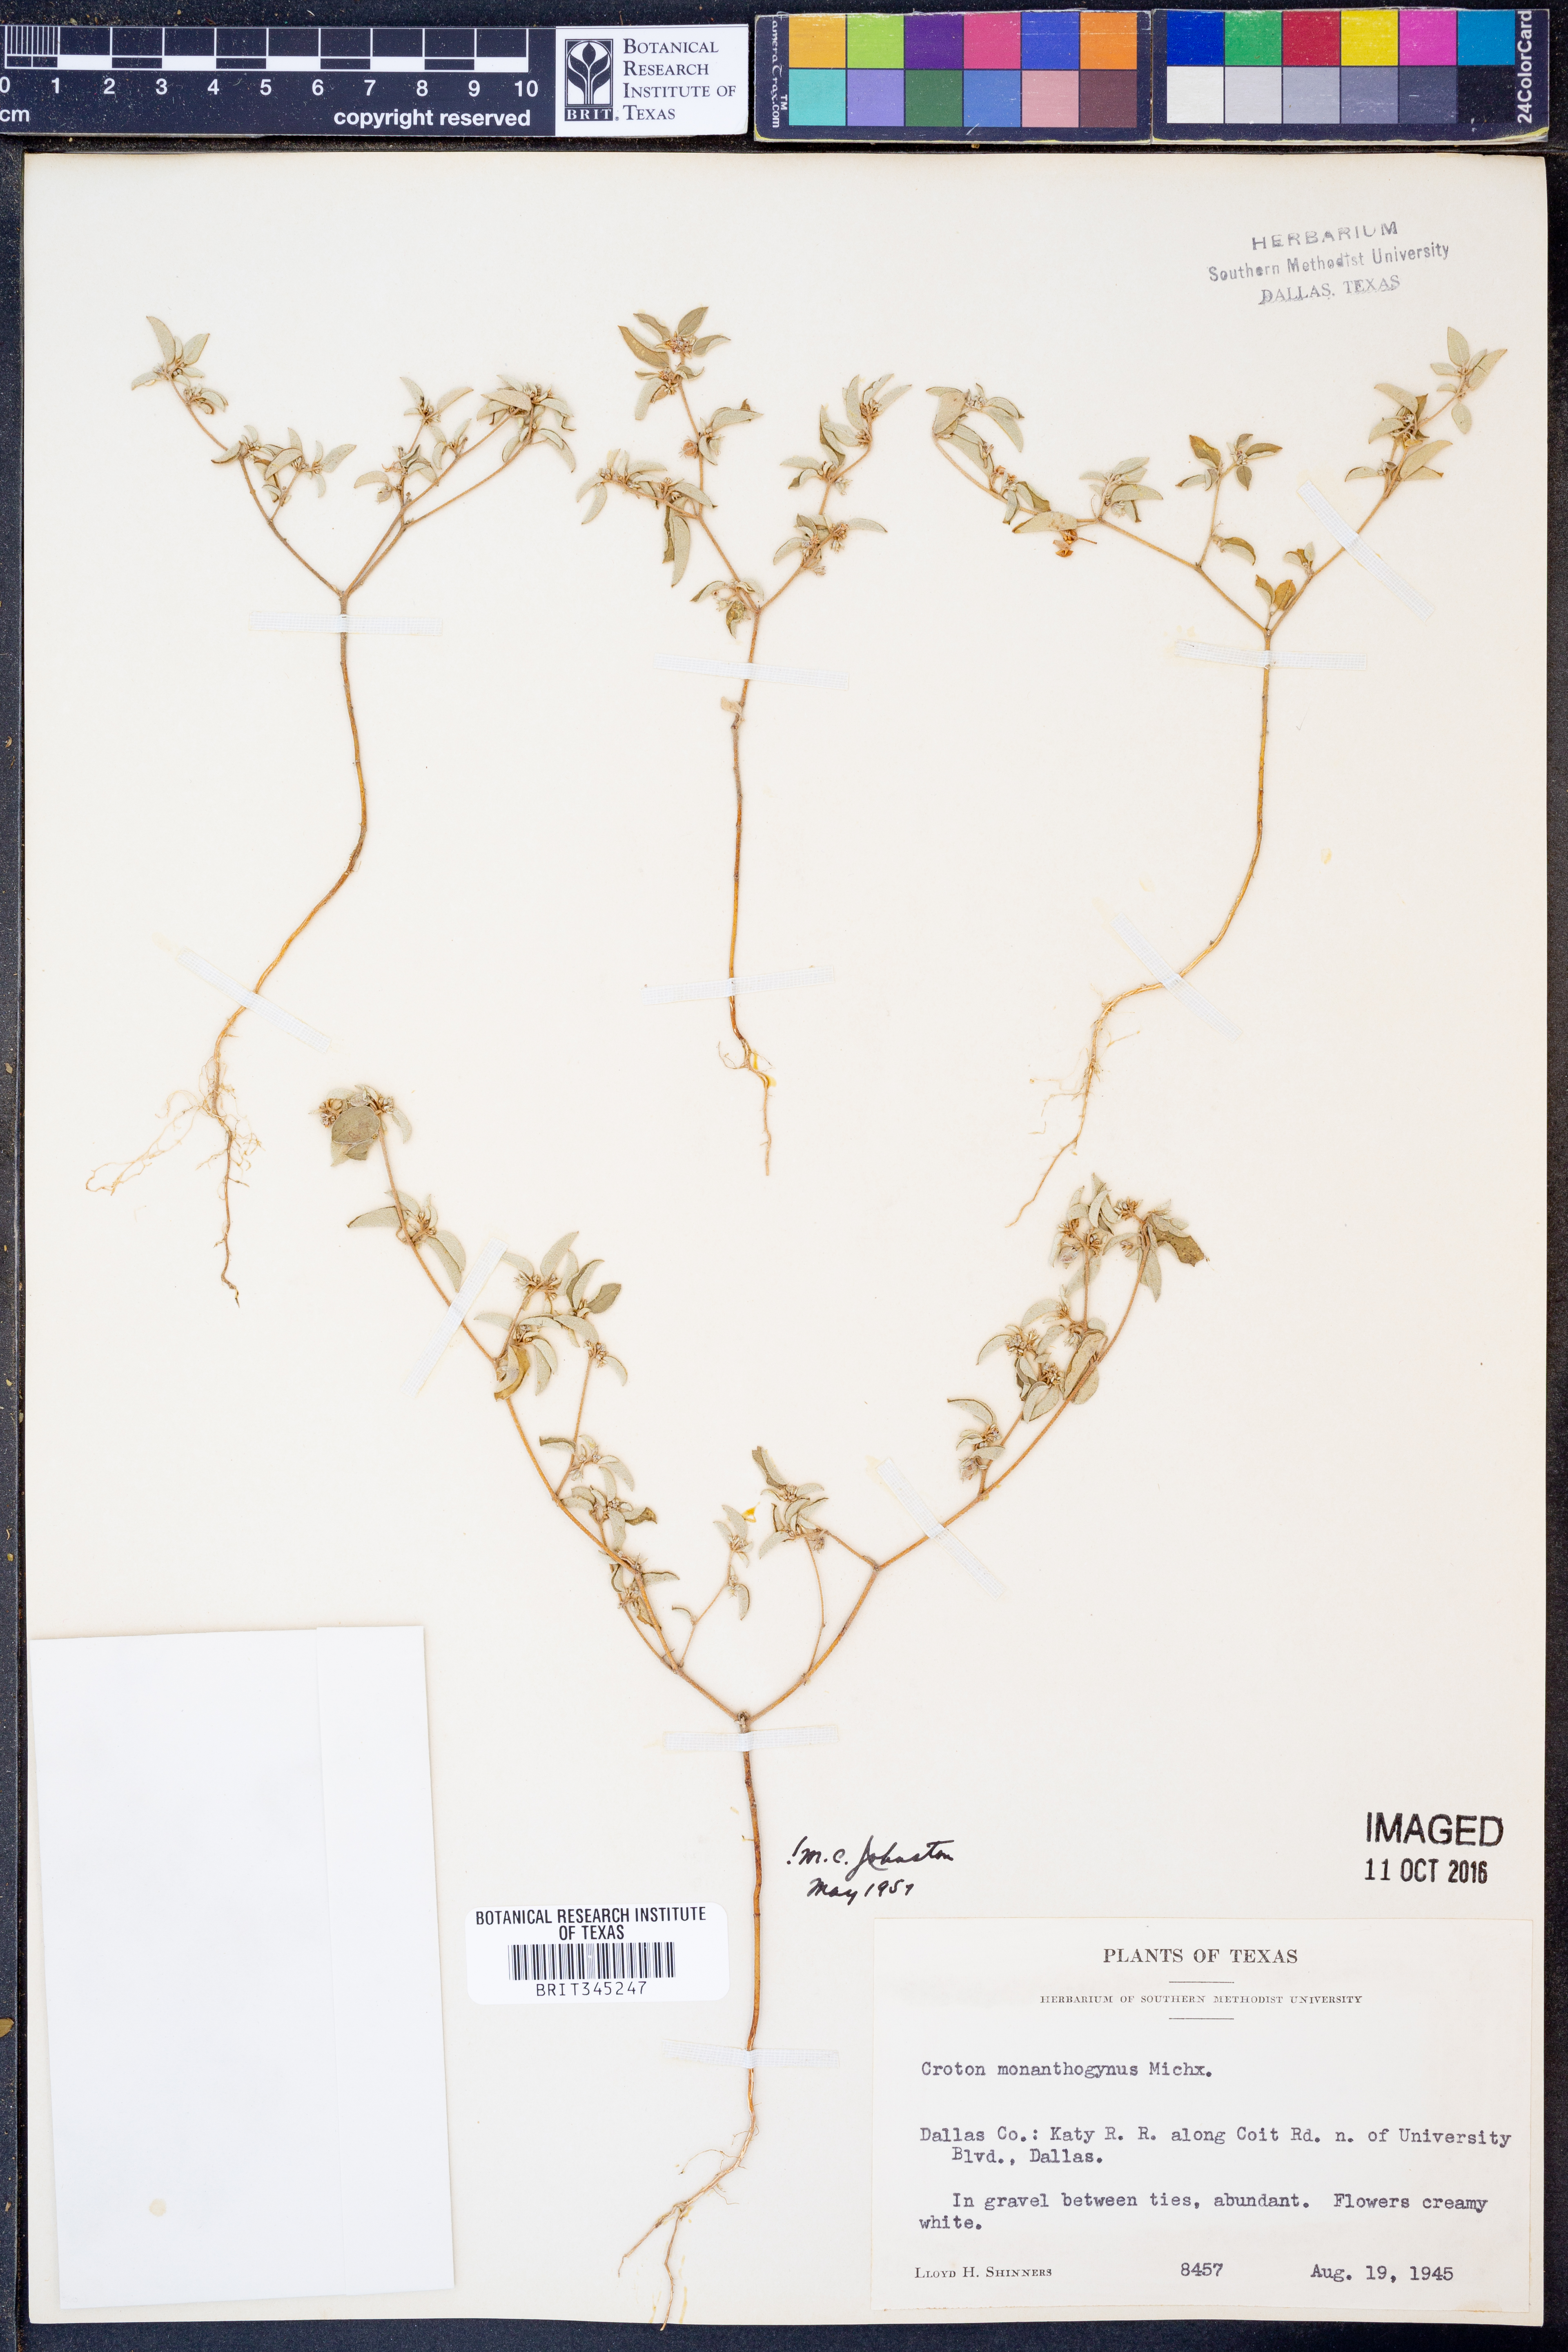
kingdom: Plantae
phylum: Tracheophyta
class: Magnoliopsida
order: Malpighiales
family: Euphorbiaceae
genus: Croton
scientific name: Croton monanthogynus
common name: One-seed croton
